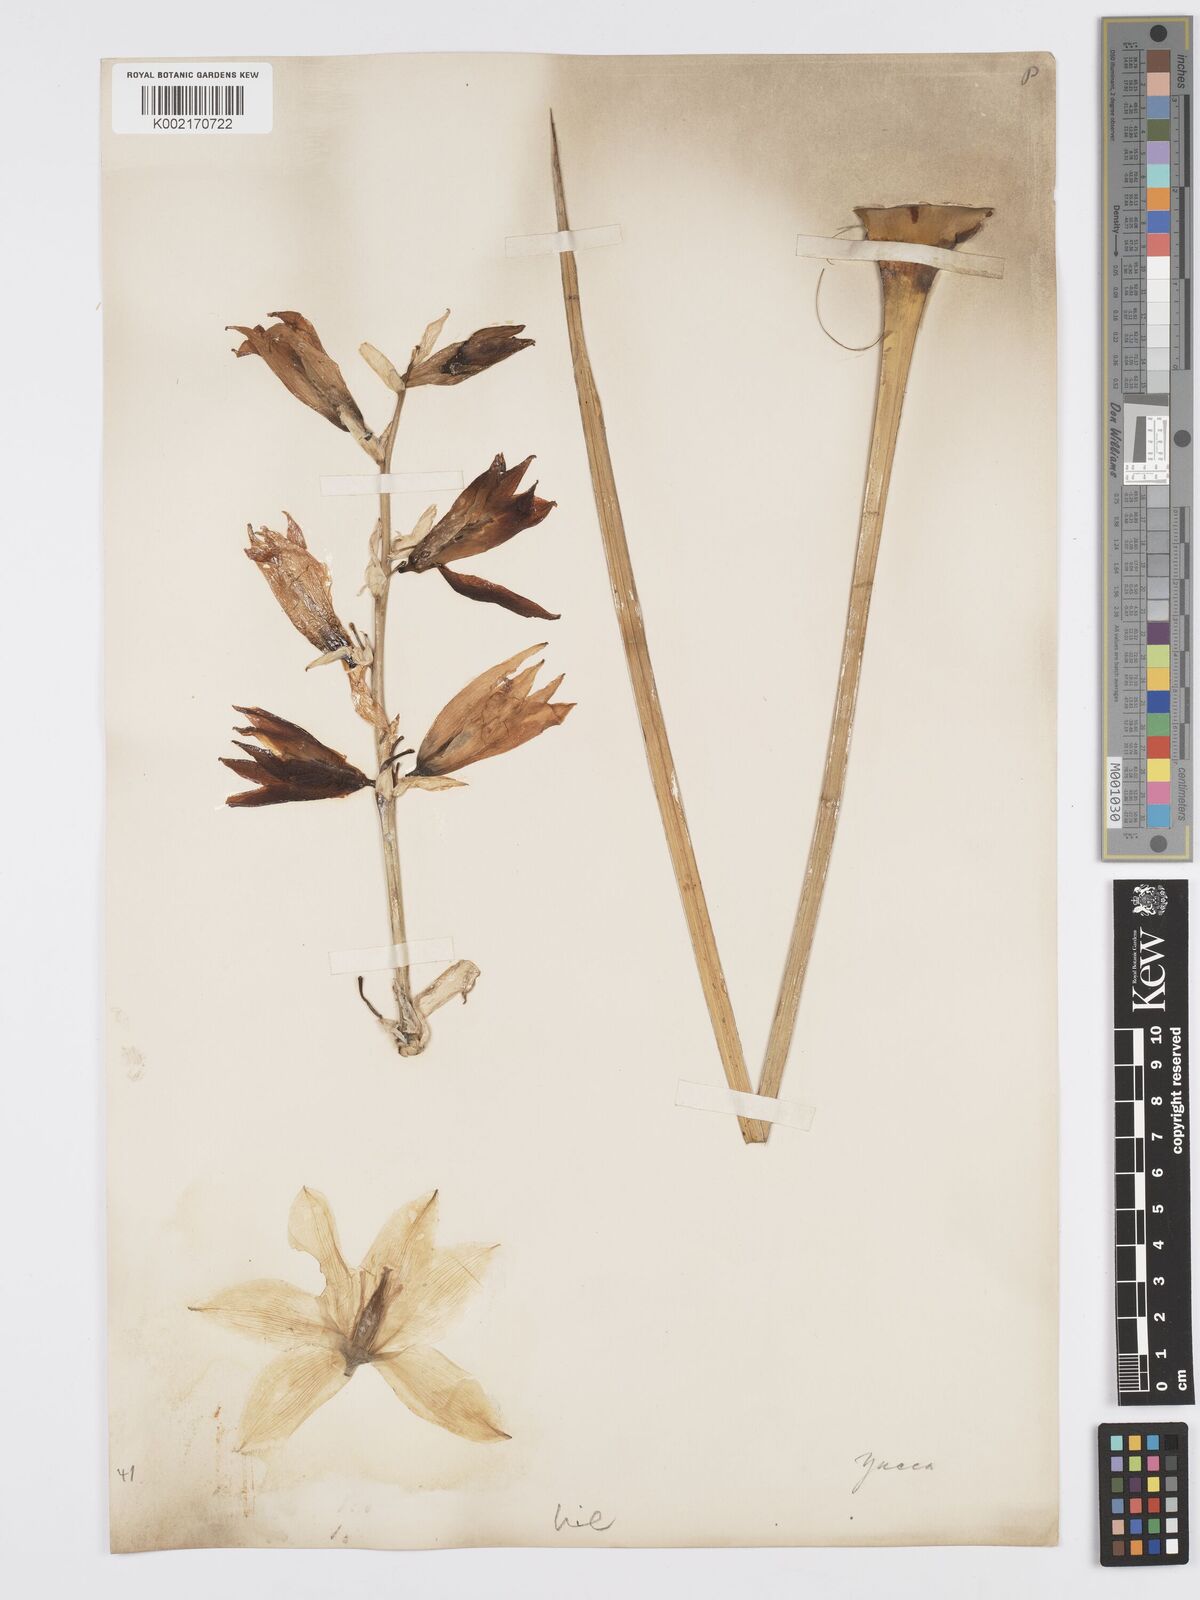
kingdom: Plantae
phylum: Tracheophyta
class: Liliopsida
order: Asparagales
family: Asparagaceae
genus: Yucca
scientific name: Yucca
